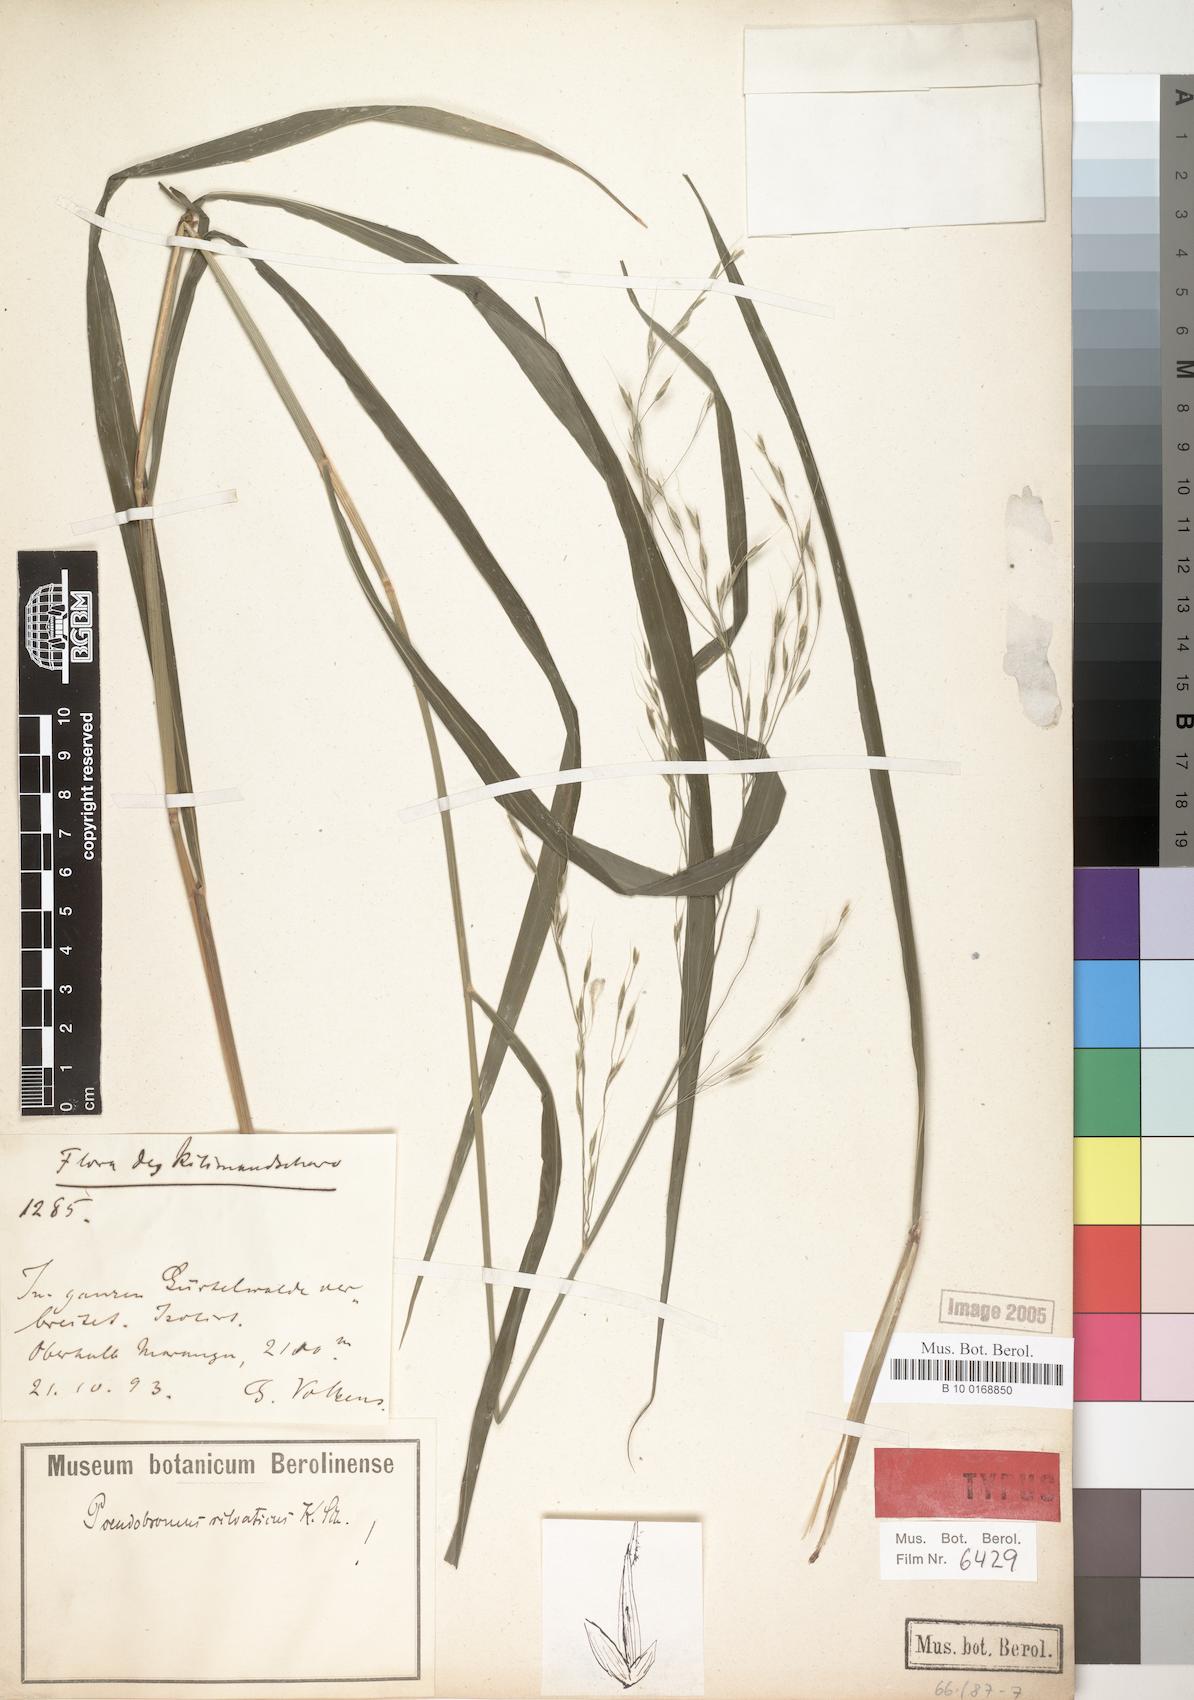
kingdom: Plantae
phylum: Tracheophyta
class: Liliopsida
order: Poales
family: Poaceae
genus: Pseudobromus
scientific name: Pseudobromus africanus
